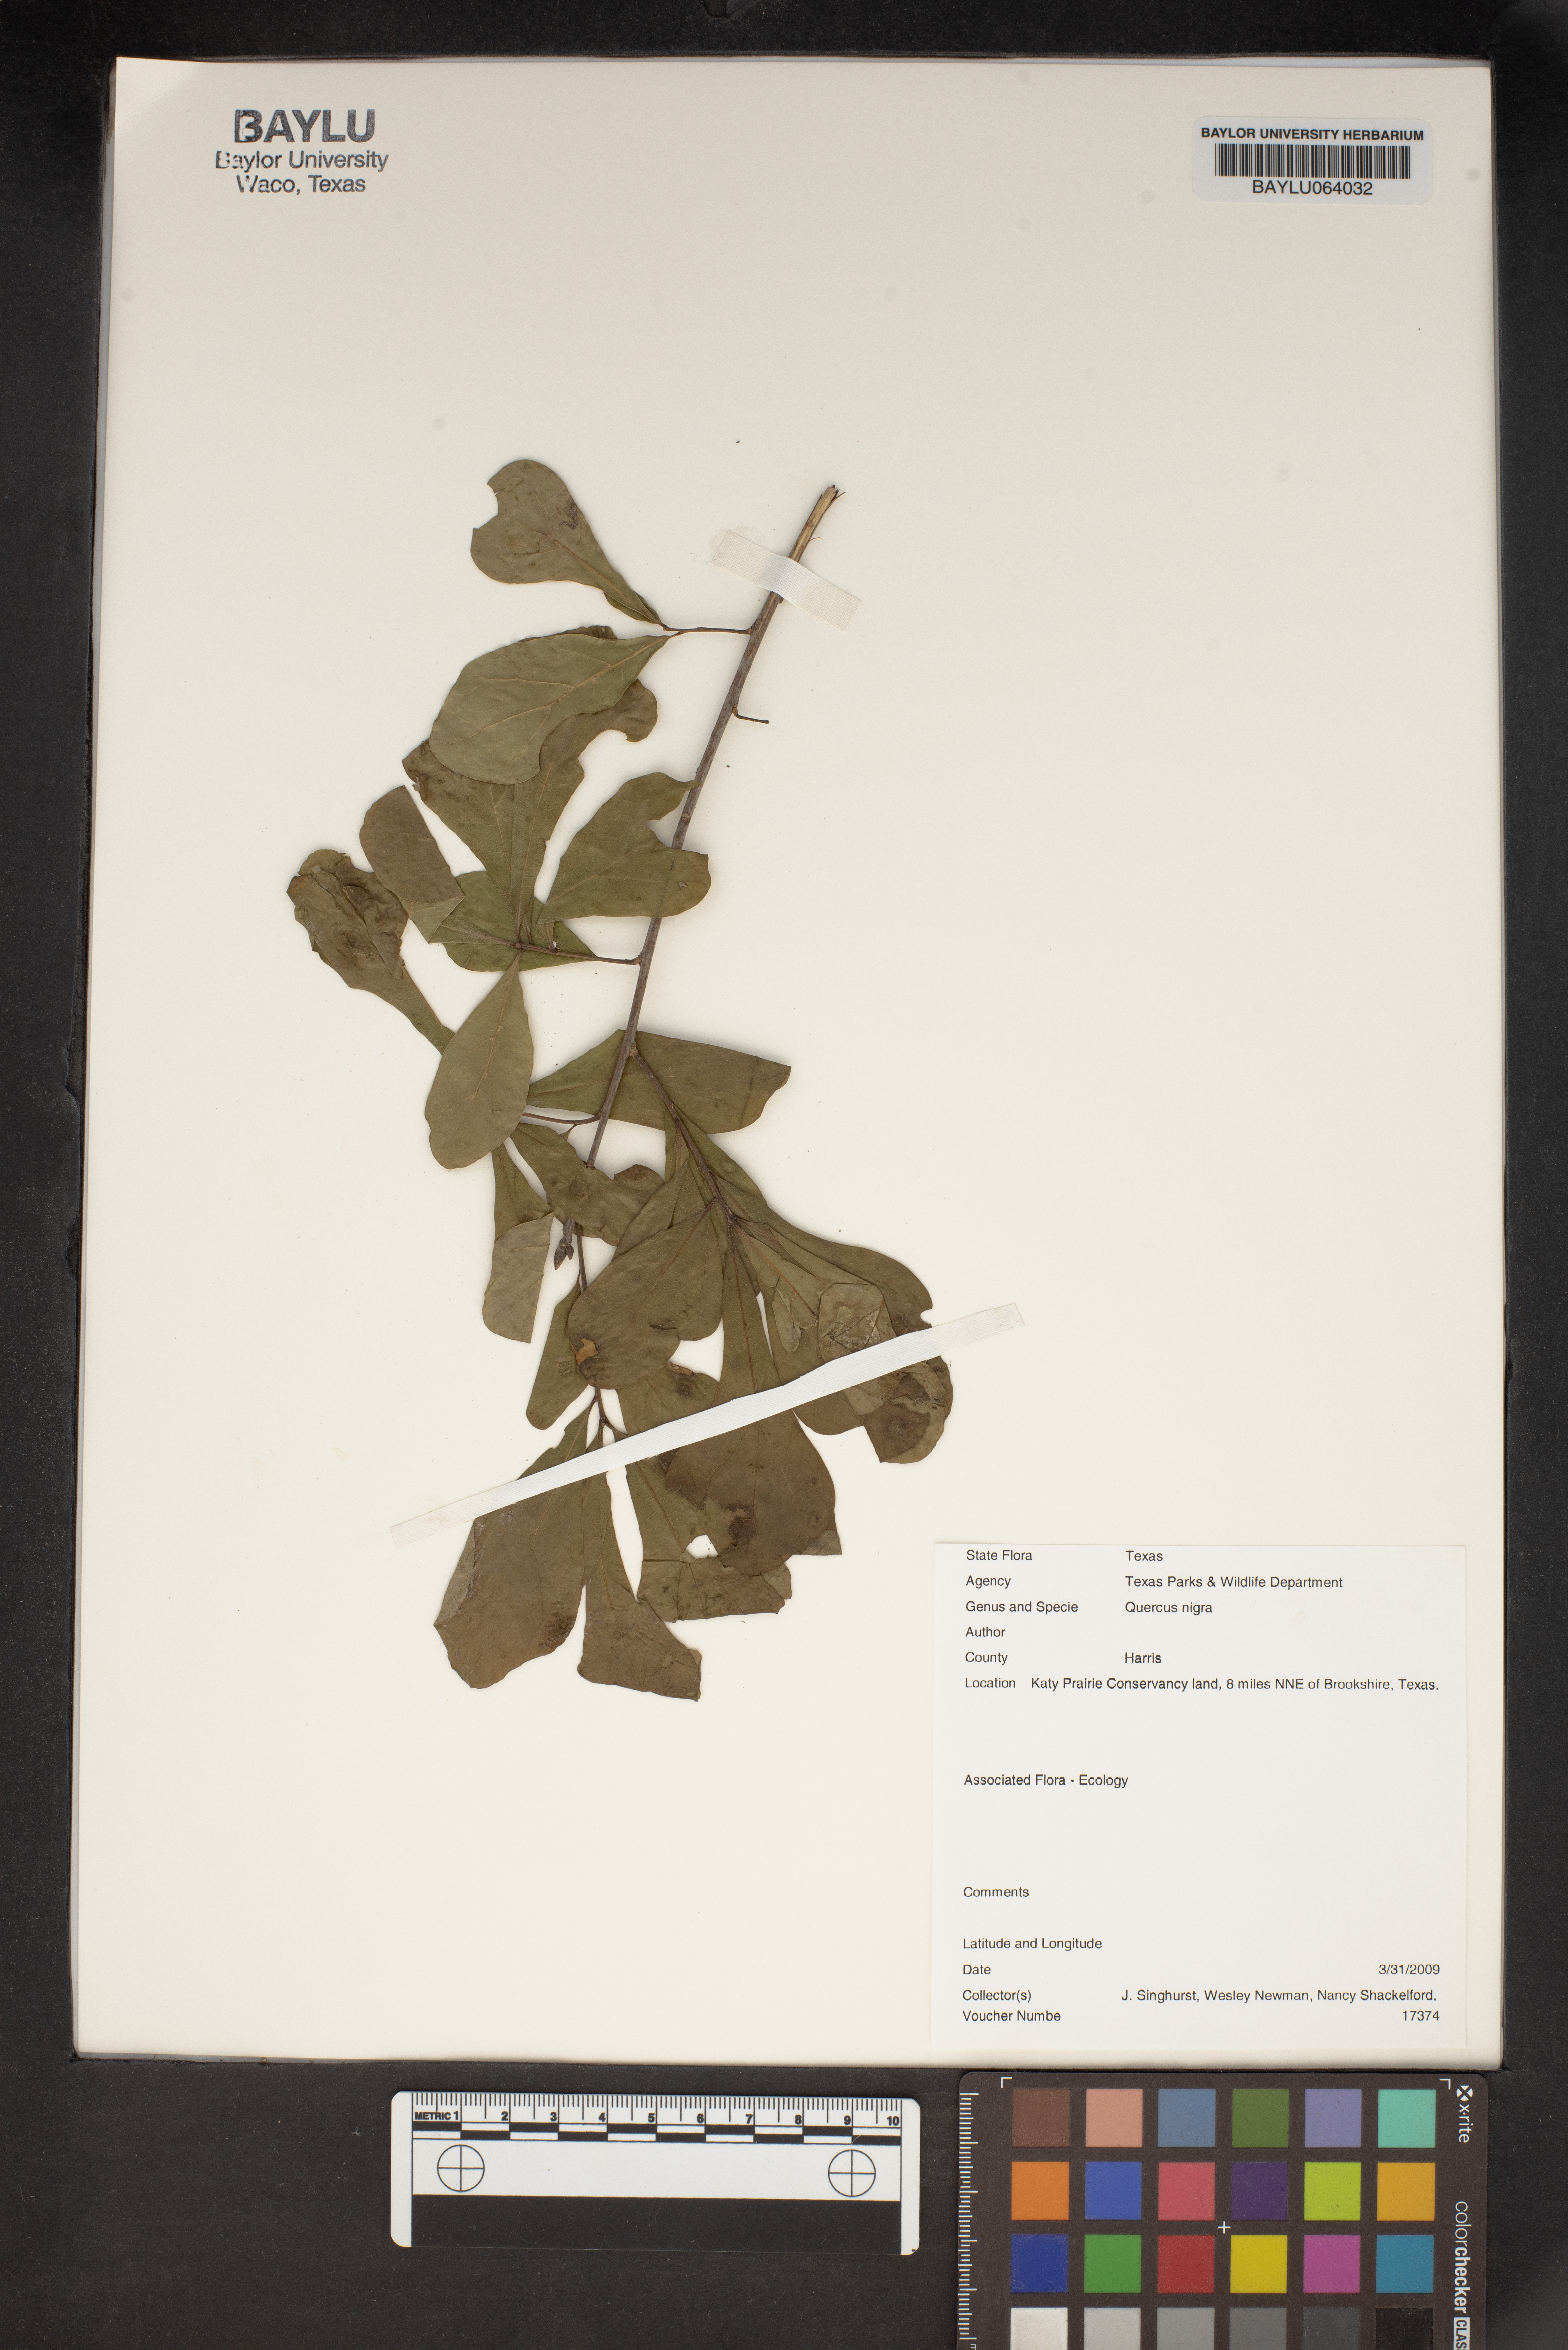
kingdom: Plantae
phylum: Tracheophyta
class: Magnoliopsida
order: Fagales
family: Fagaceae
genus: Quercus
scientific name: Quercus nigra
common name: Water oak
